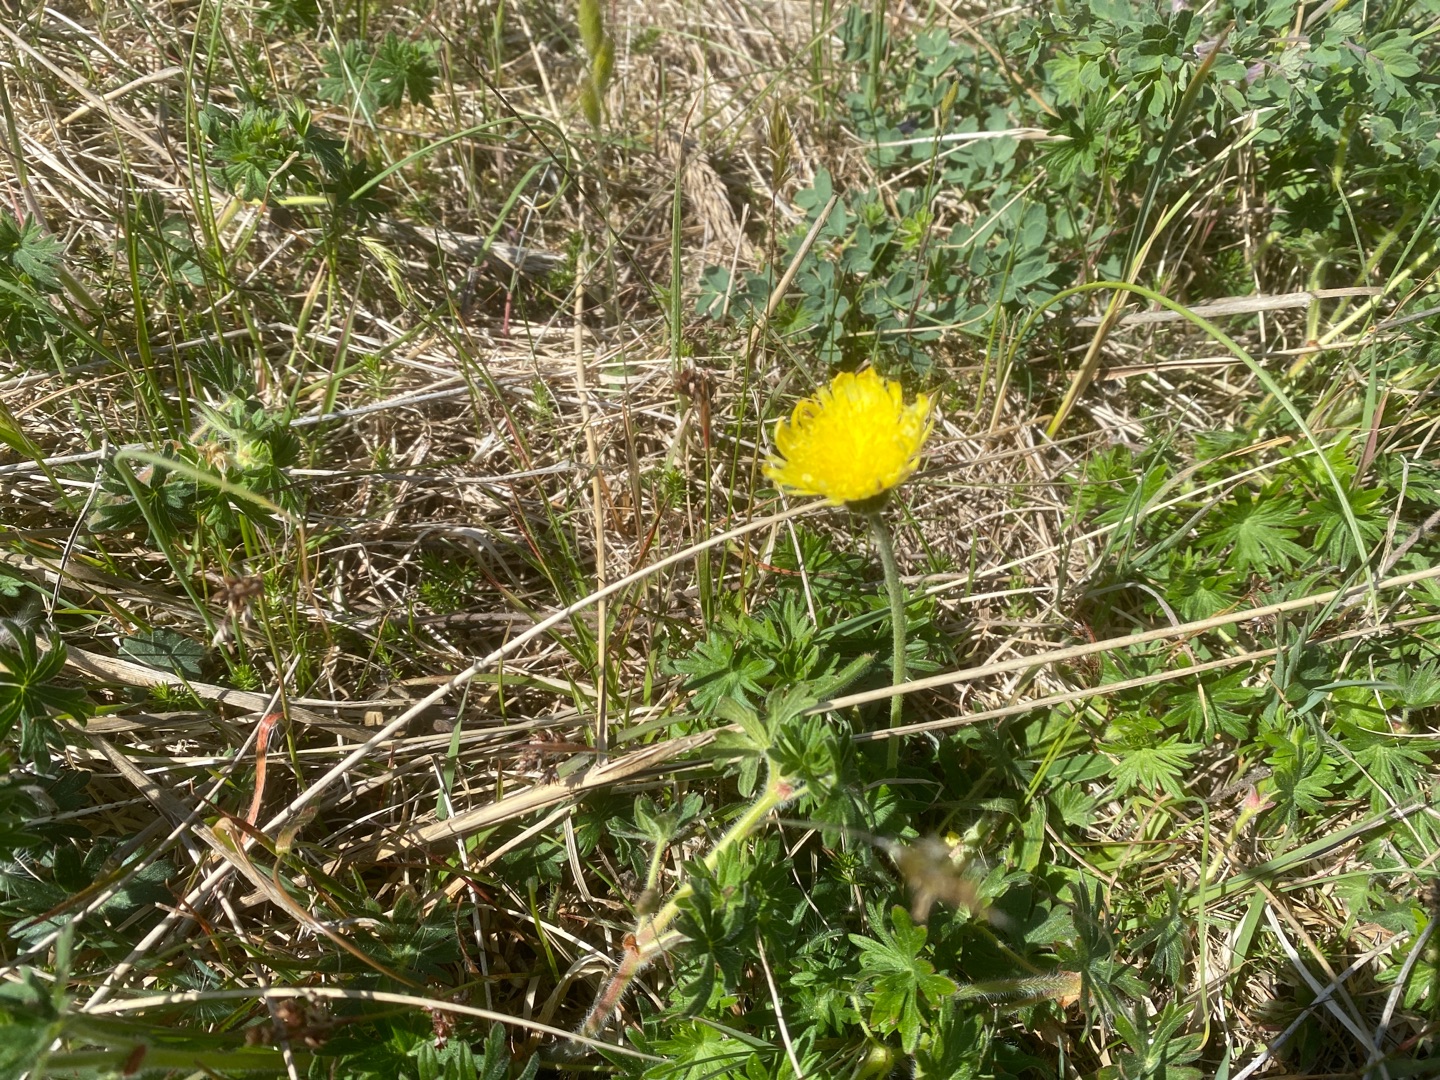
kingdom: Plantae
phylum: Tracheophyta
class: Magnoliopsida
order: Asterales
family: Asteraceae
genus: Pilosella
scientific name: Pilosella officinarum
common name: Håret høgeurt
